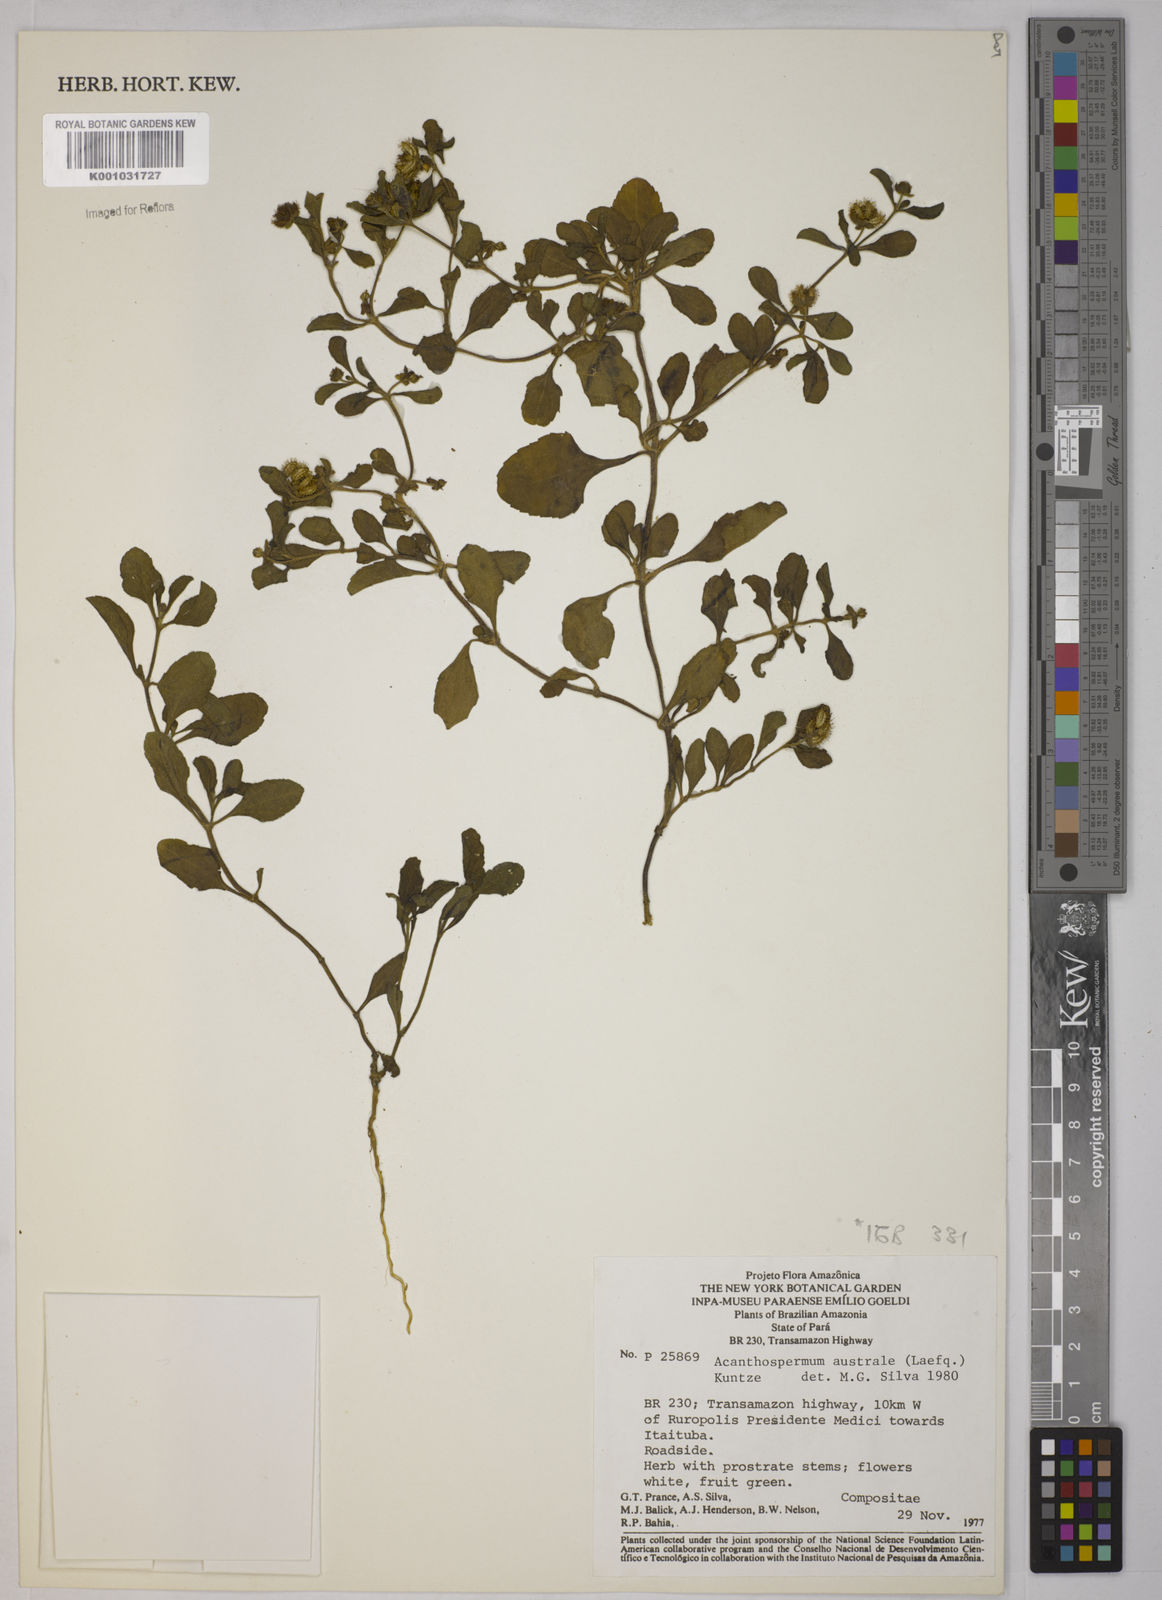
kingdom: Plantae
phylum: Tracheophyta
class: Magnoliopsida
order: Asterales
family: Asteraceae
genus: Acanthospermum
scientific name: Acanthospermum australe
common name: Paraguayan starbur
